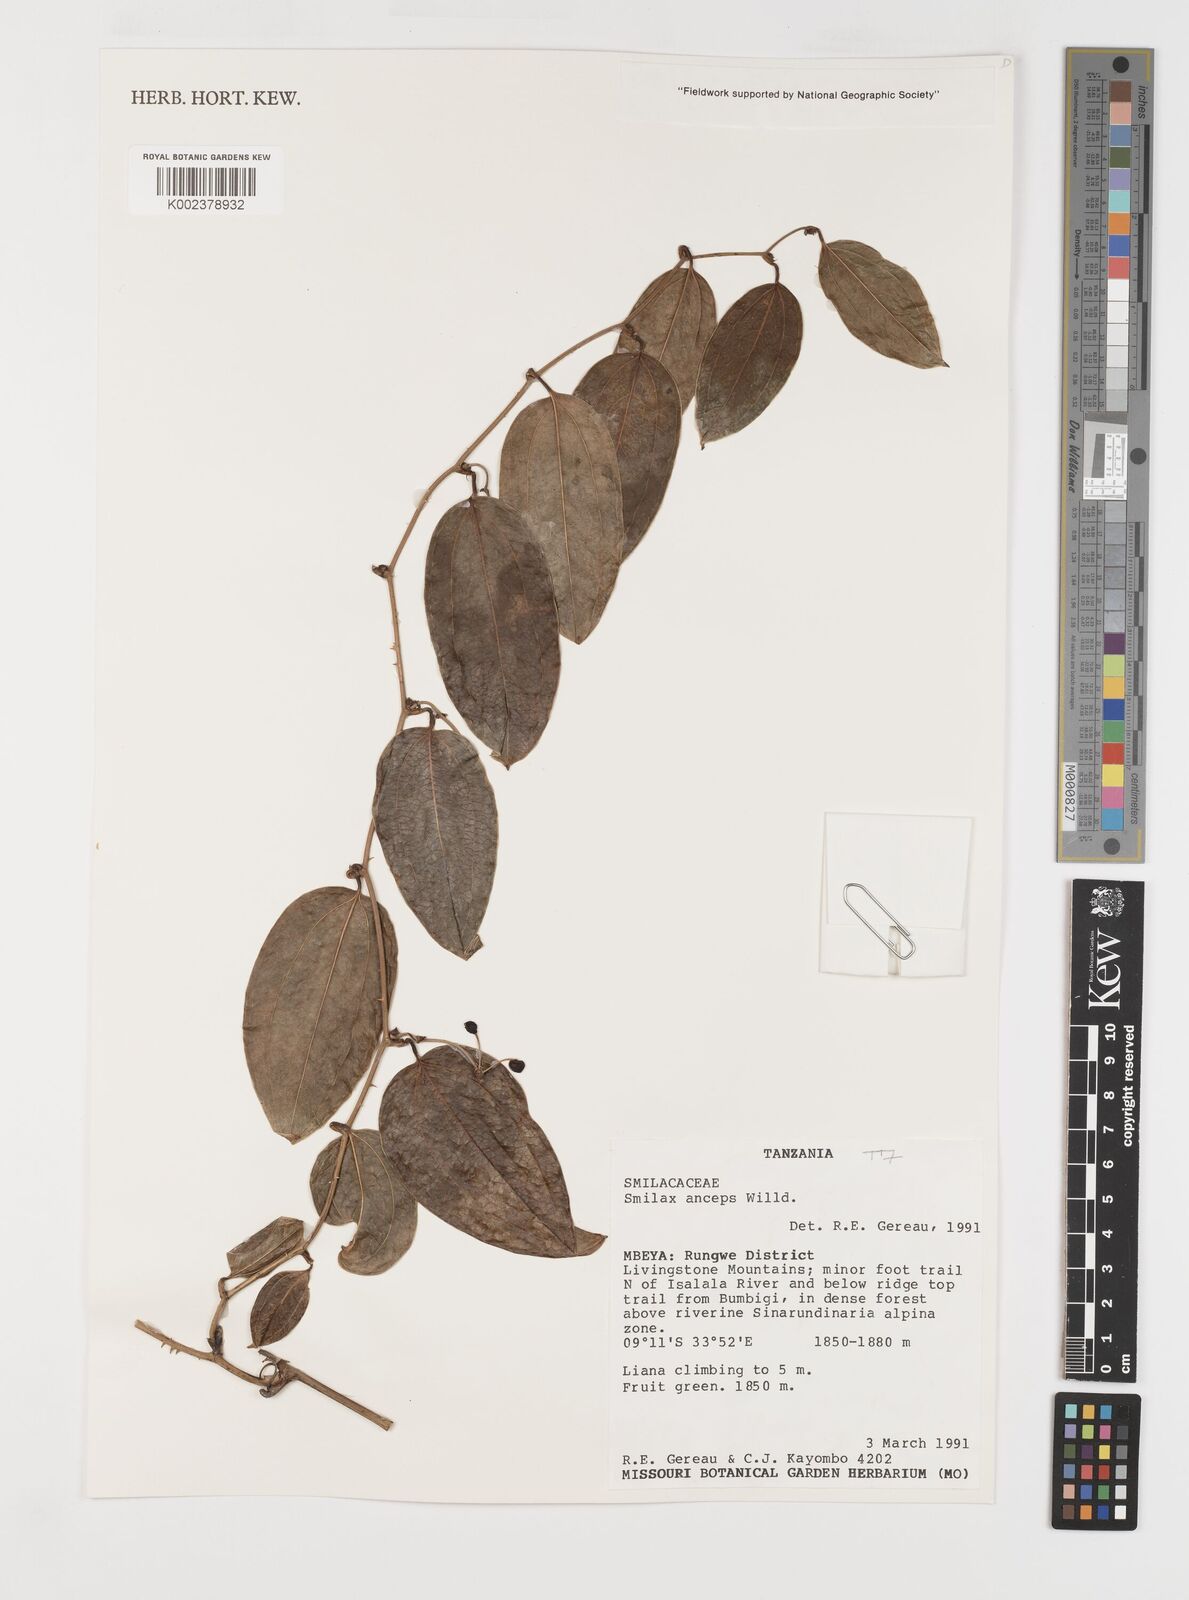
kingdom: Plantae
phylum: Tracheophyta
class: Liliopsida
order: Liliales
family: Smilacaceae
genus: Smilax
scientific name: Smilax anceps
